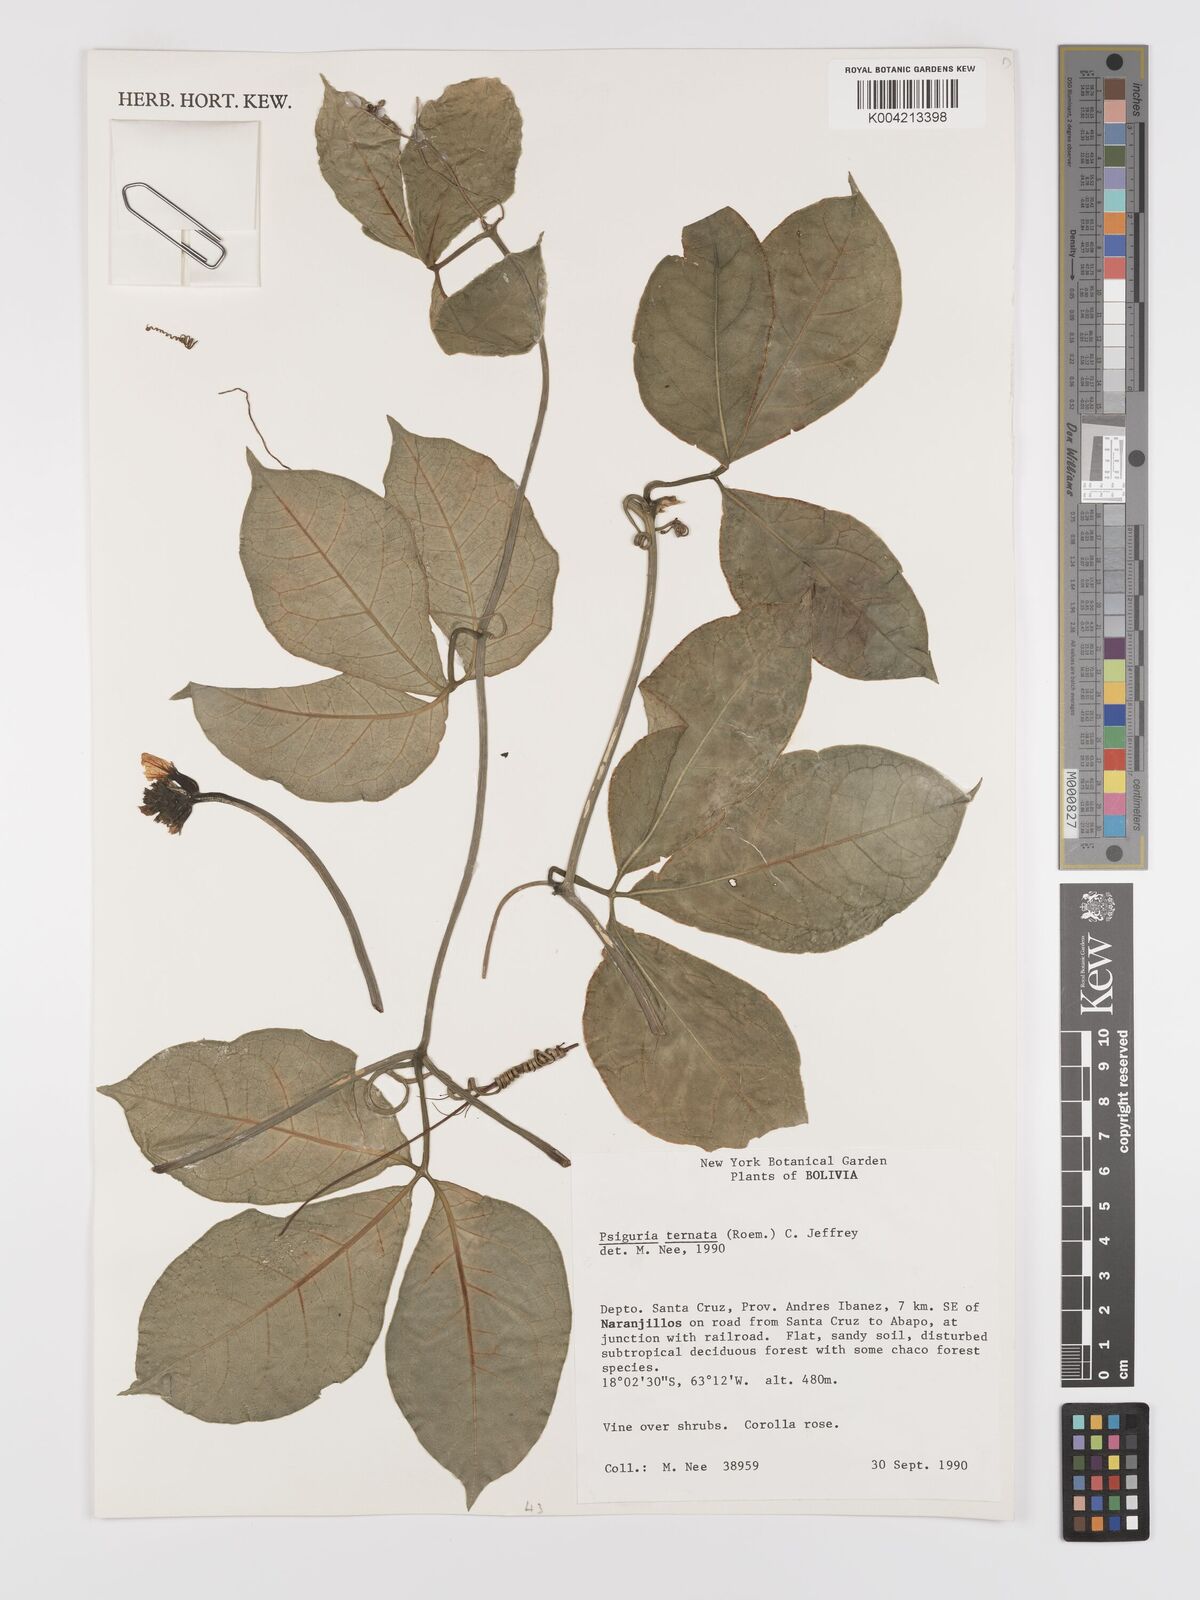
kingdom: Plantae
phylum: Tracheophyta
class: Magnoliopsida
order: Cucurbitales
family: Cucurbitaceae
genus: Psiguria
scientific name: Psiguria ternata
